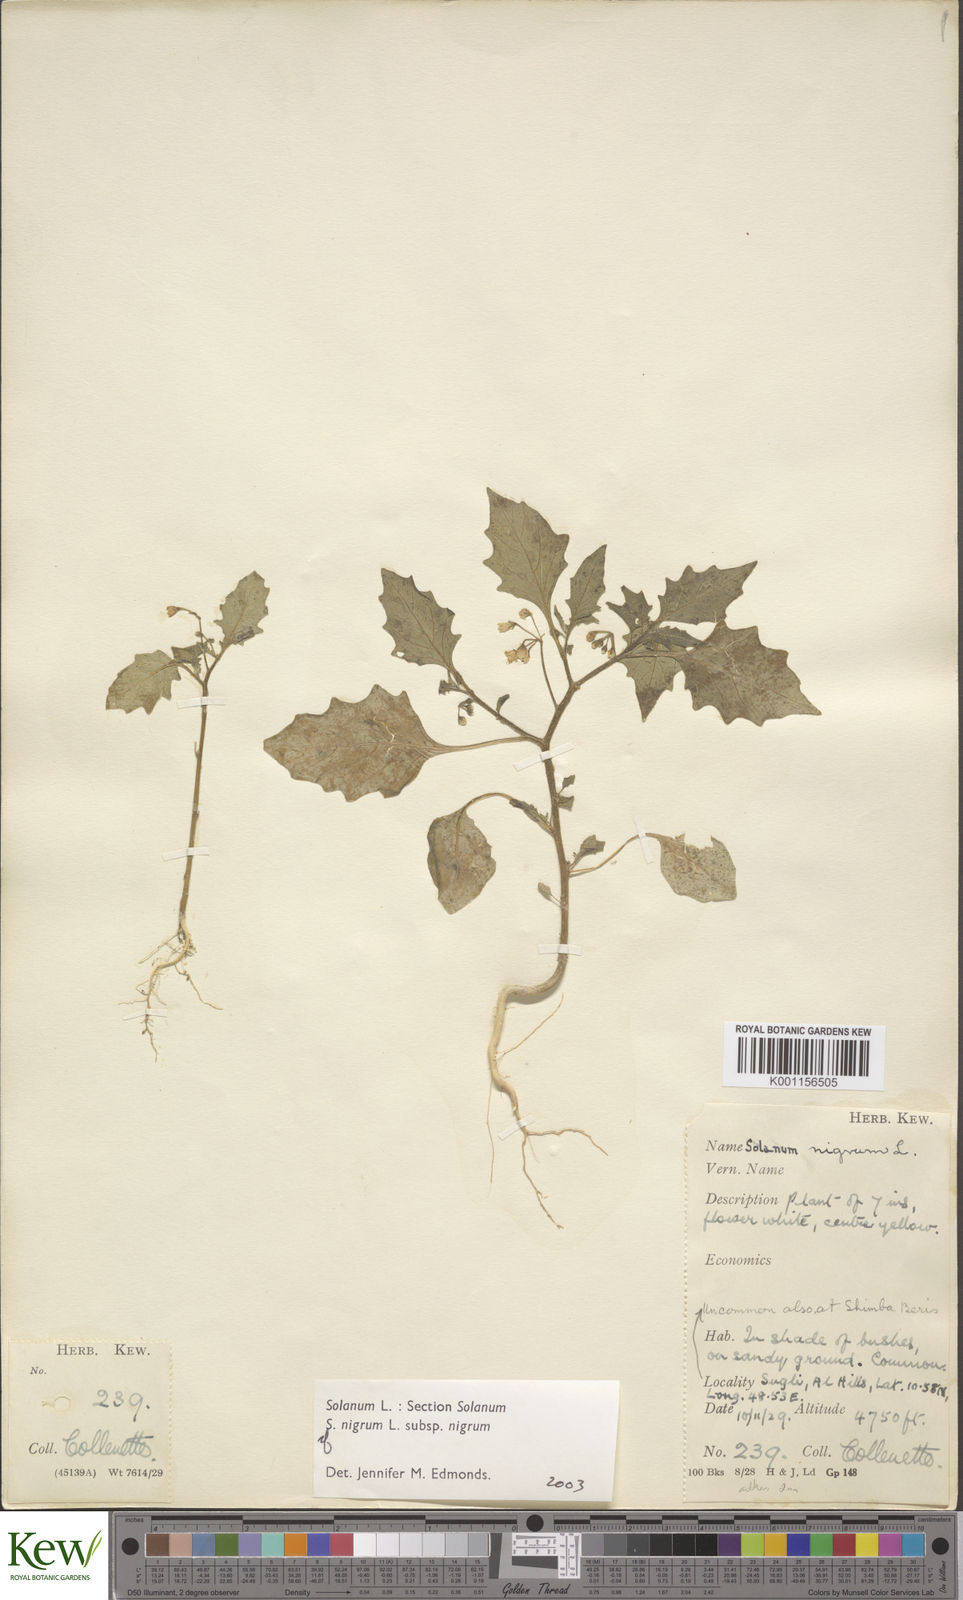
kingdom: Plantae
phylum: Tracheophyta
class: Magnoliopsida
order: Solanales
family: Solanaceae
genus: Solanum
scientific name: Solanum villosum
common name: Red nightshade
